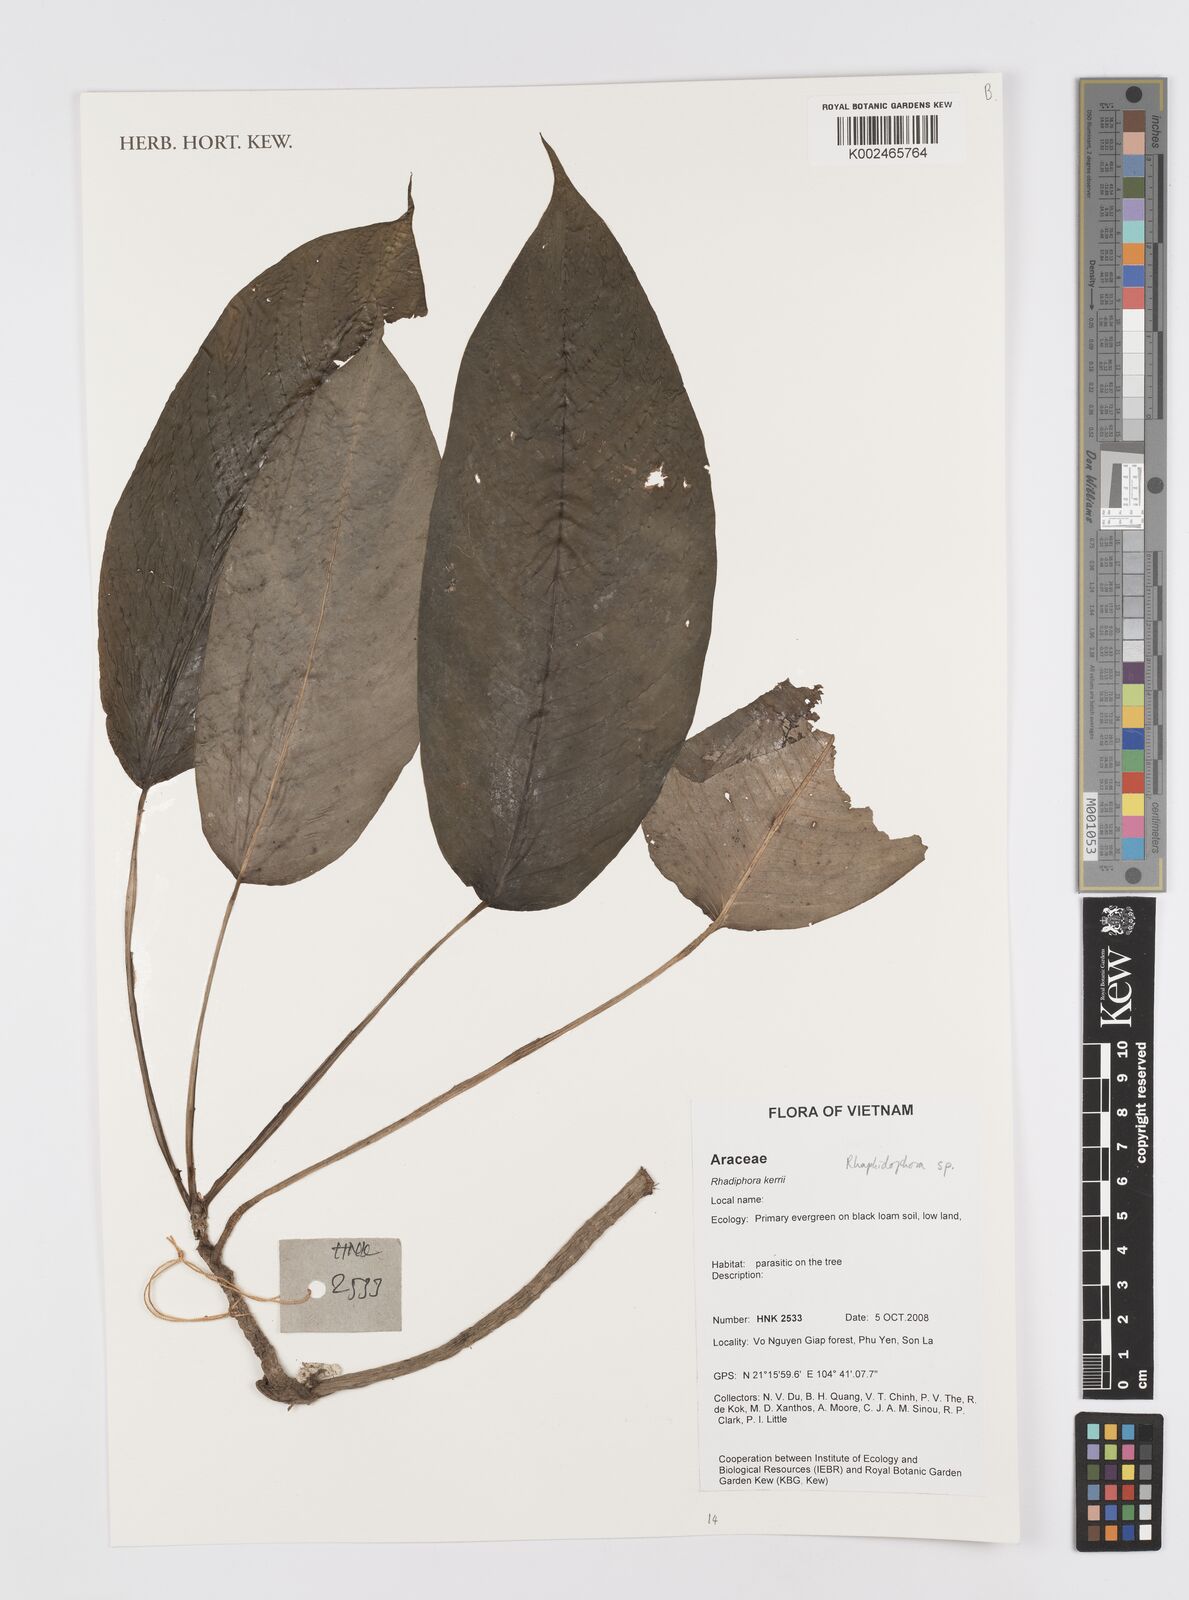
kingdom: Plantae
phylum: Tracheophyta
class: Liliopsida
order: Alismatales
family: Araceae
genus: Rhaphidophora
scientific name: Rhaphidophora
